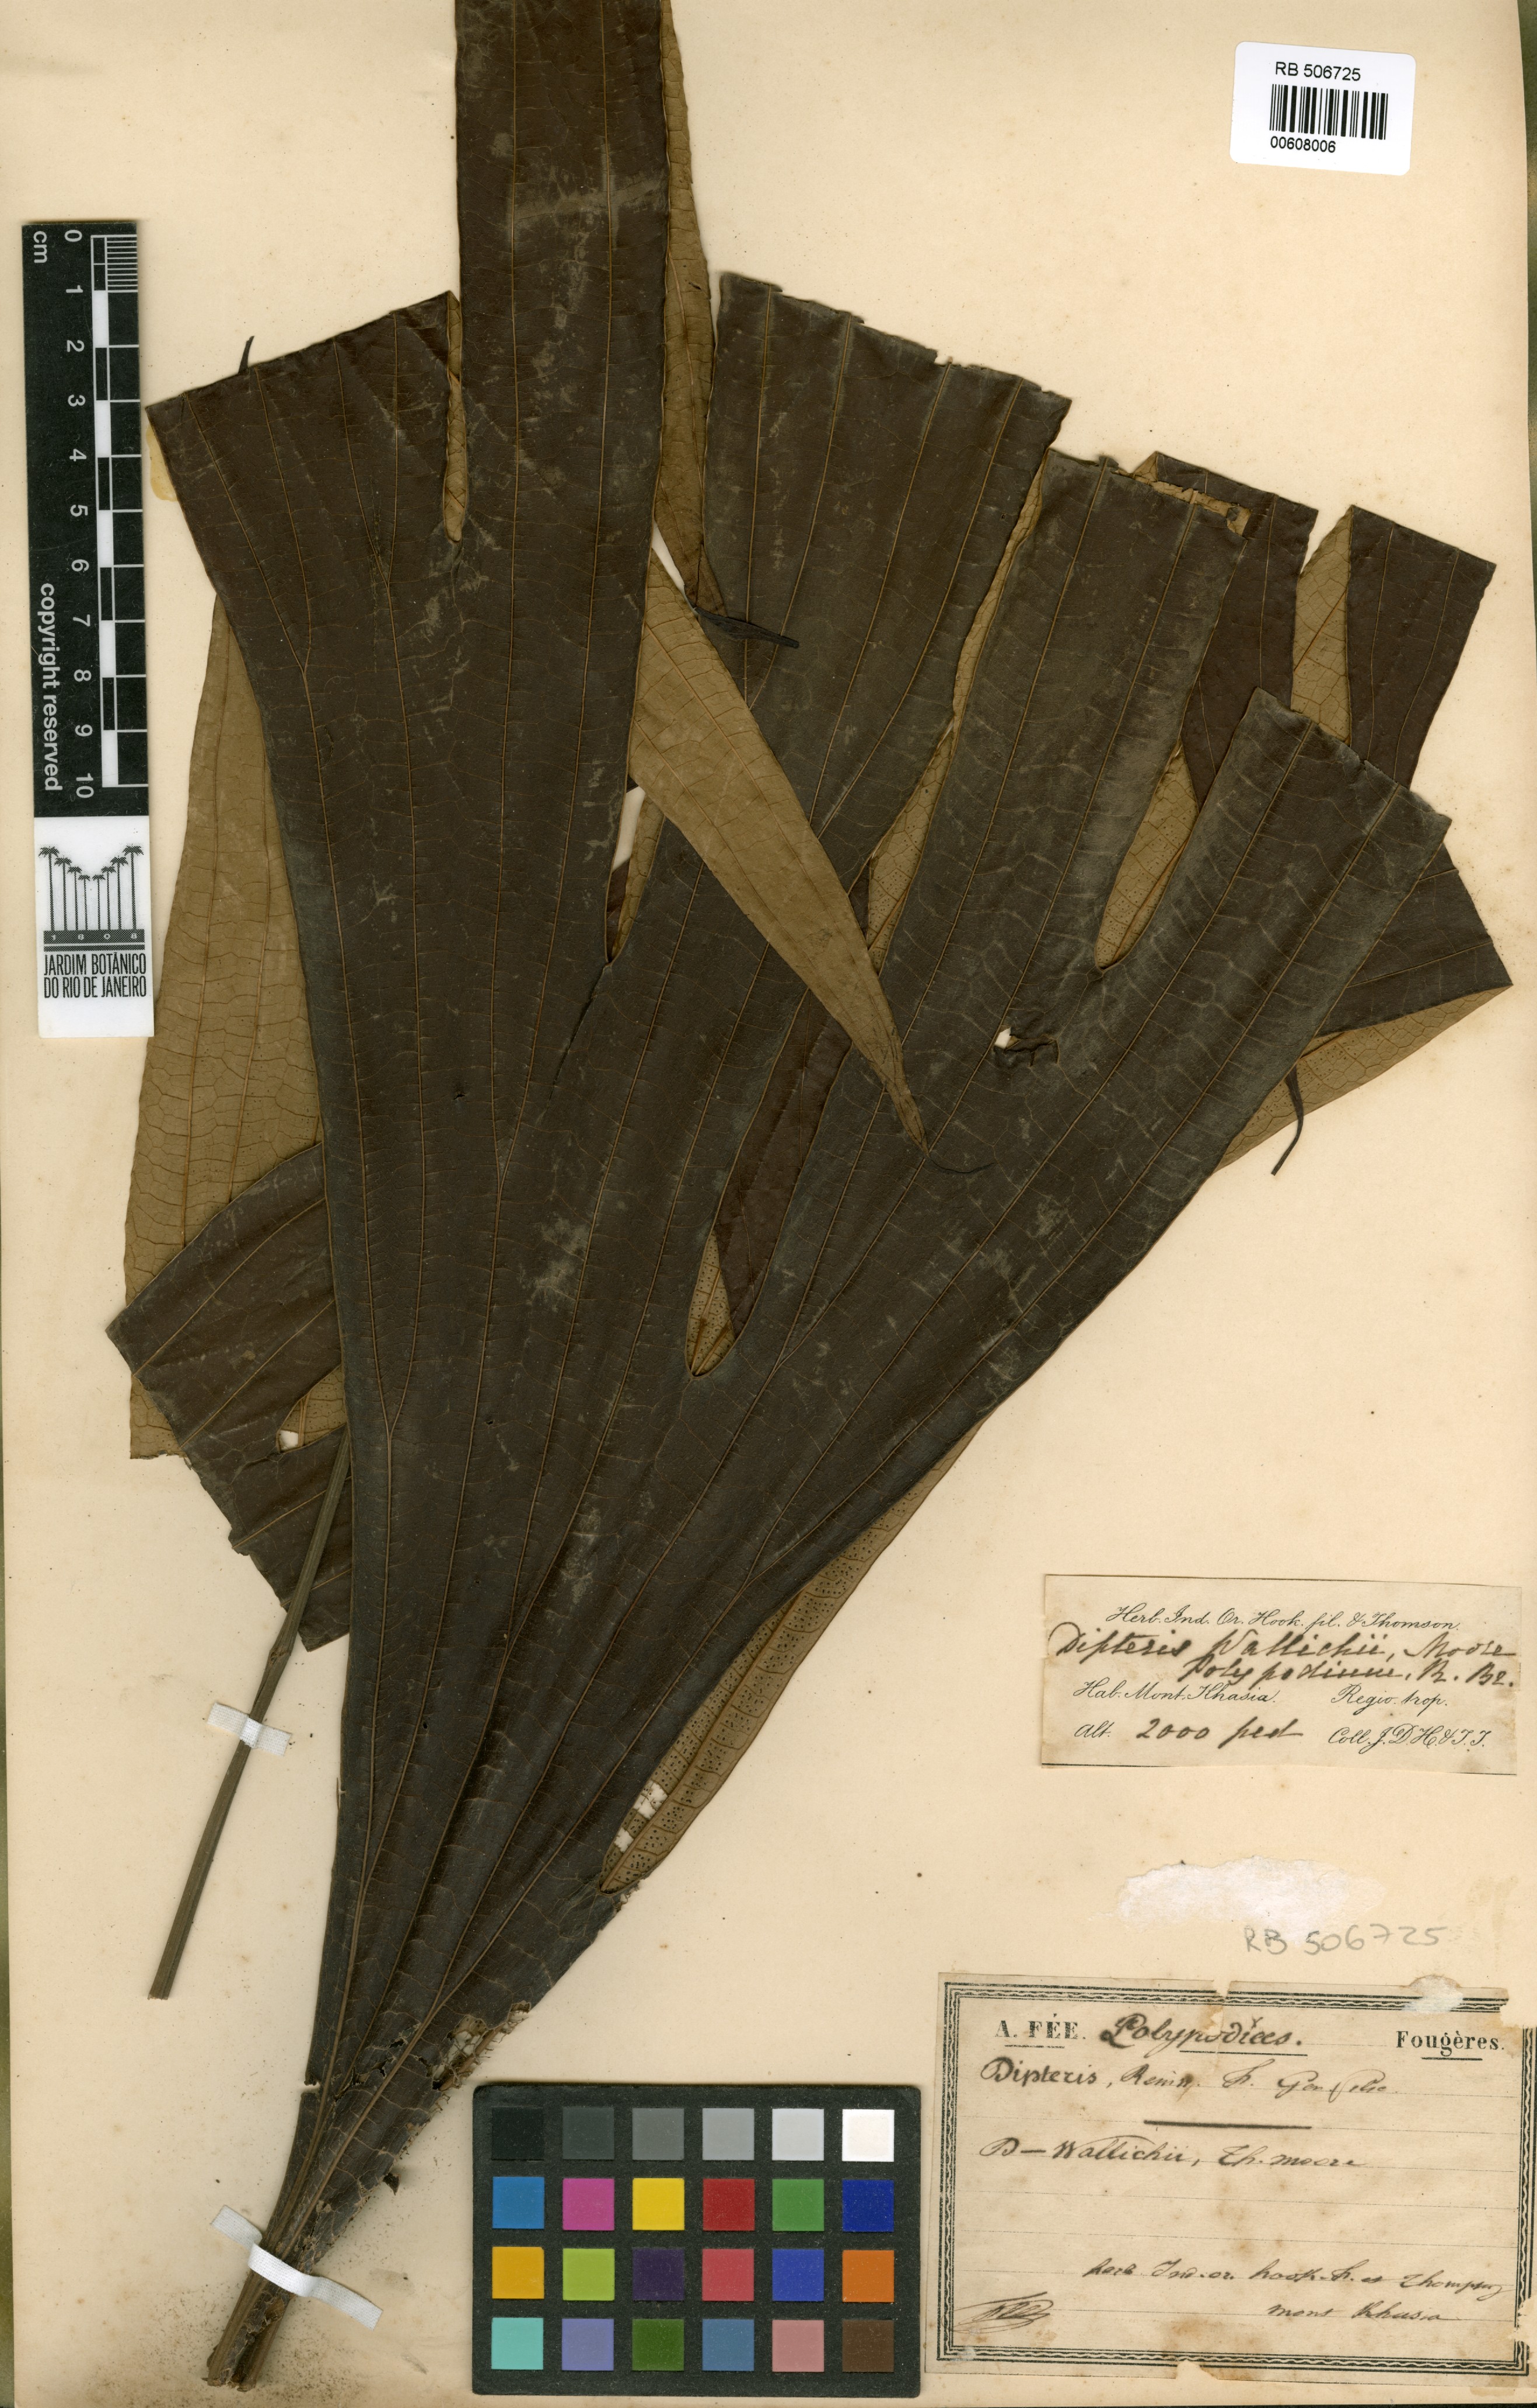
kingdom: Plantae
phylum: Tracheophyta
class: Polypodiopsida
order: Gleicheniales
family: Dipteridaceae
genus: Dipteris
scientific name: Dipteris wallichii
